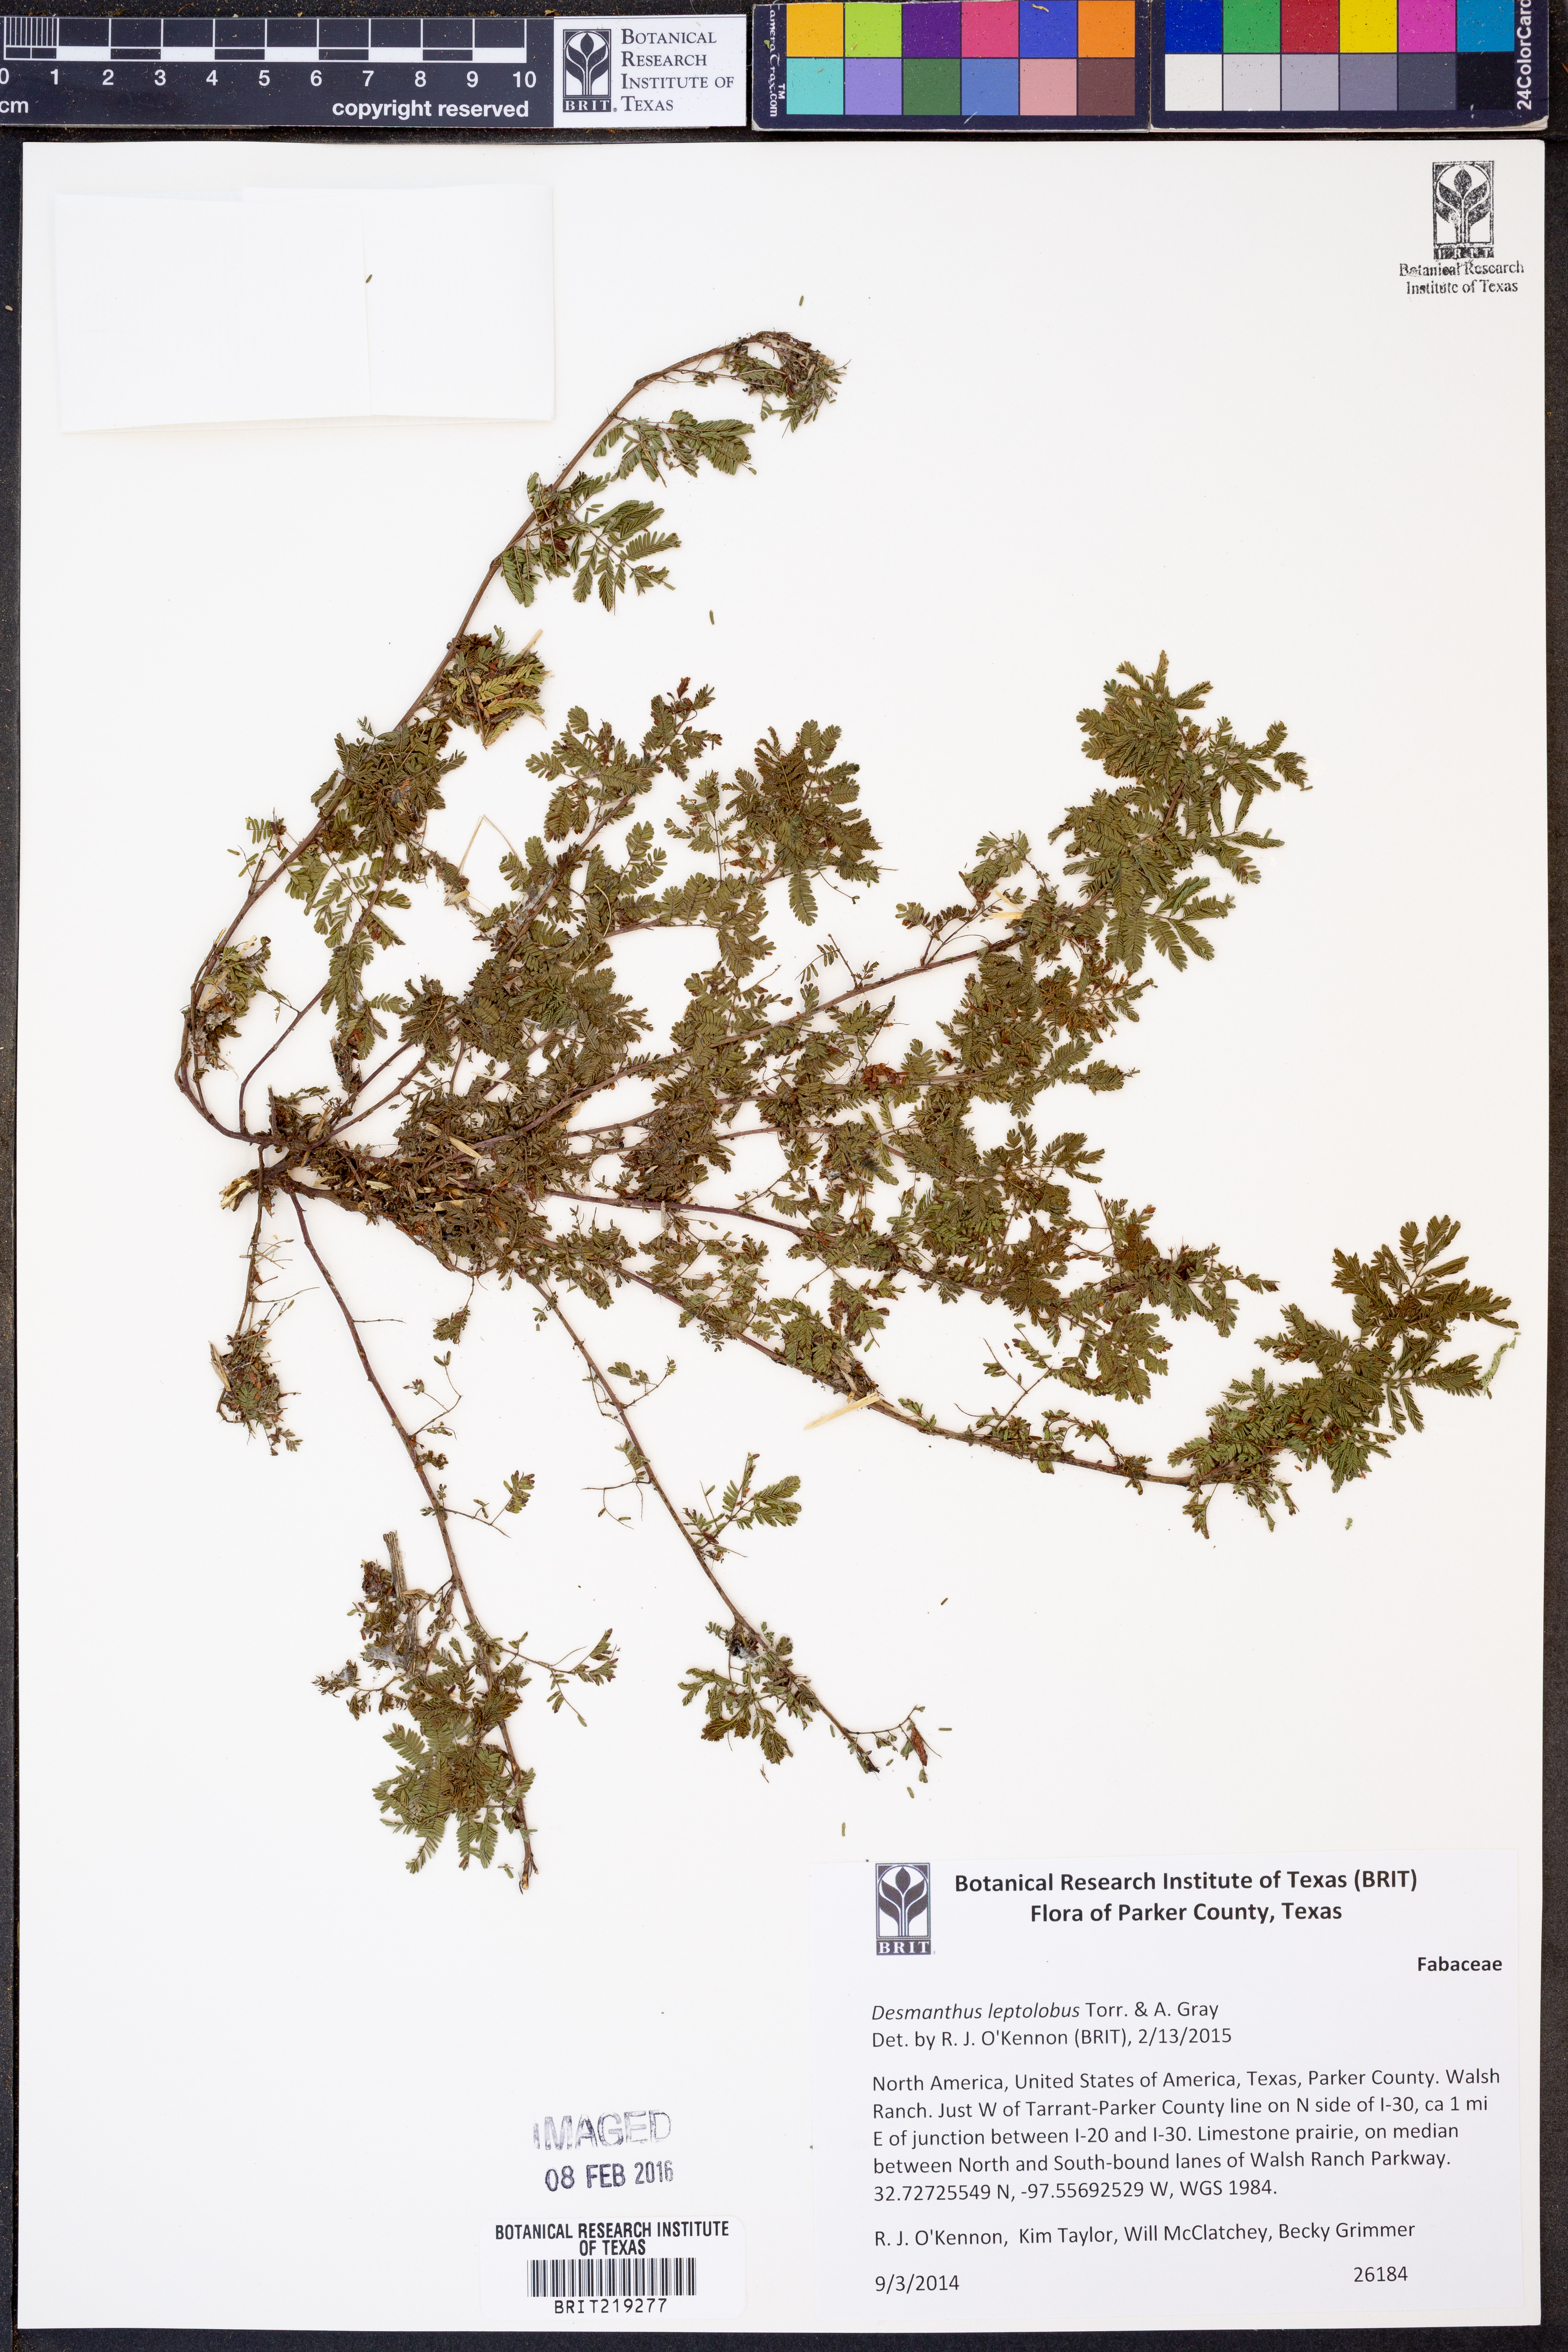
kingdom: Plantae
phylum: Tracheophyta
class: Magnoliopsida
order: Fabales
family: Fabaceae
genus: Desmanthus
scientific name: Desmanthus leptolobus
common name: Prairie-mimosa
